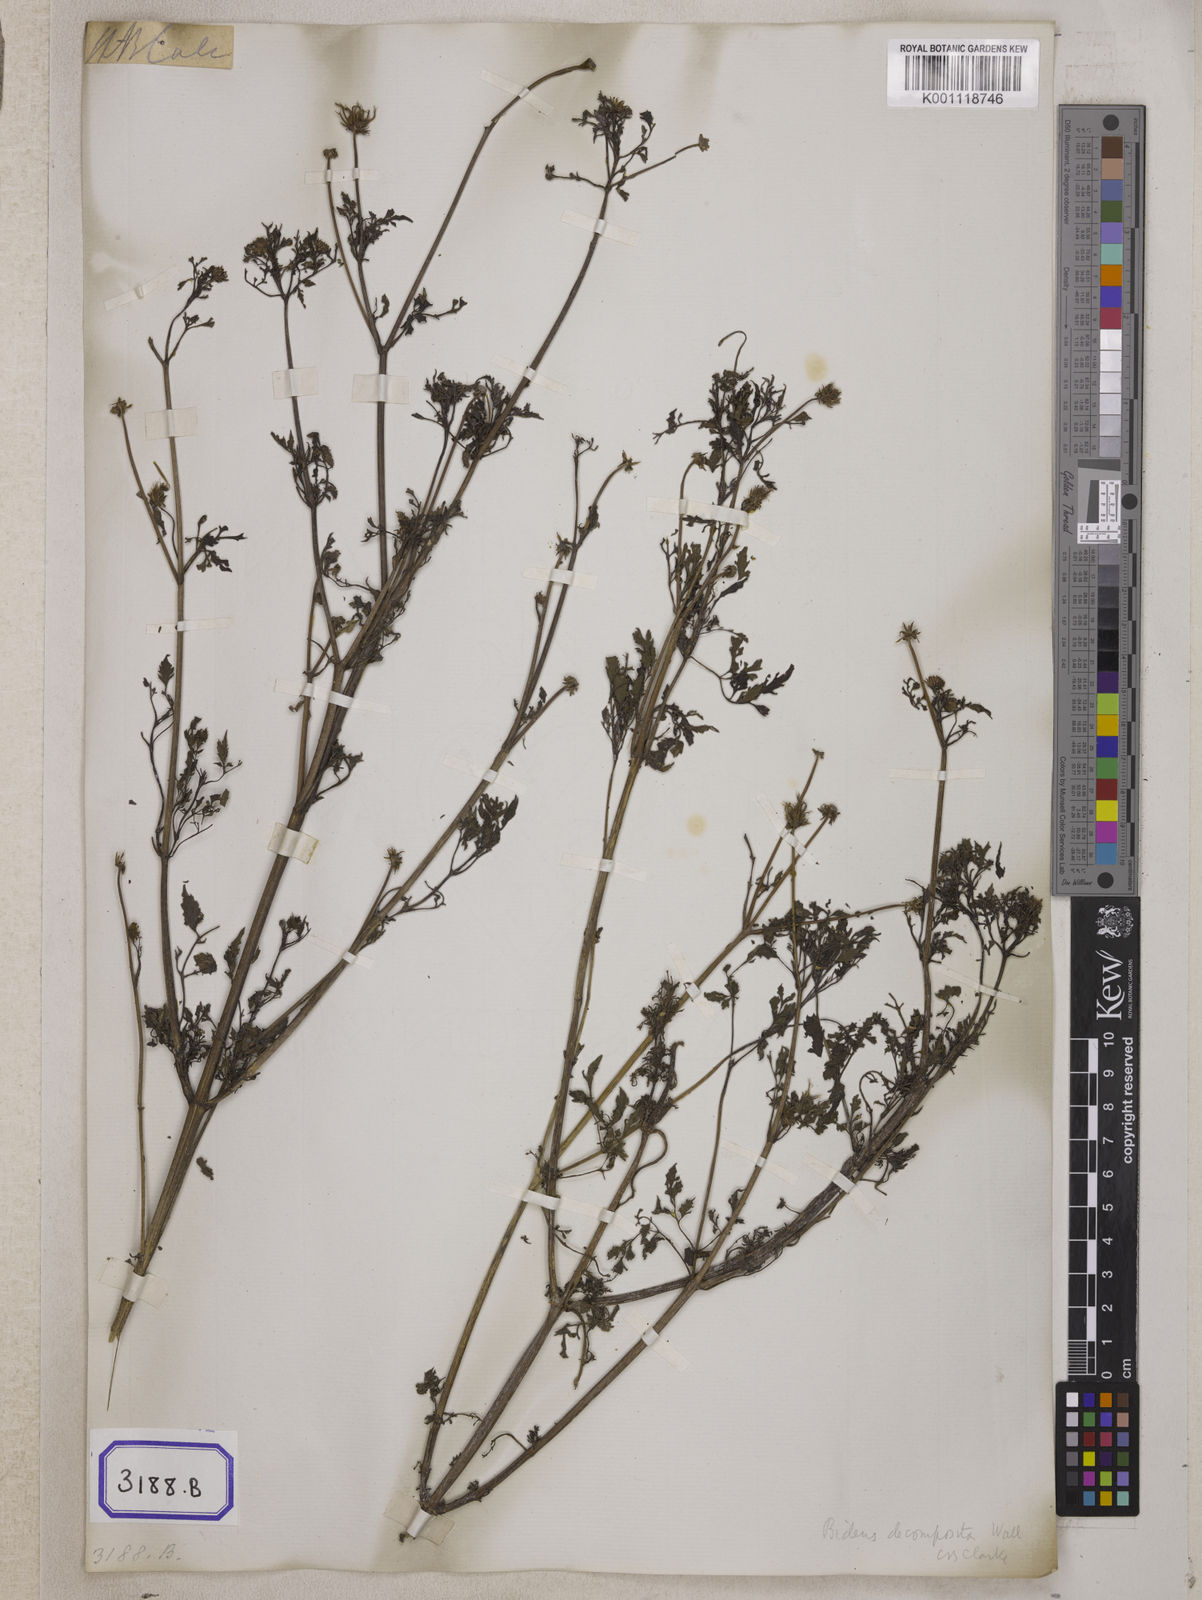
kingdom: Plantae
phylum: Tracheophyta
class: Magnoliopsida
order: Asterales
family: Asteraceae
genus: Bidens
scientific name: Bidens bipinnata
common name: Spanish-needles
